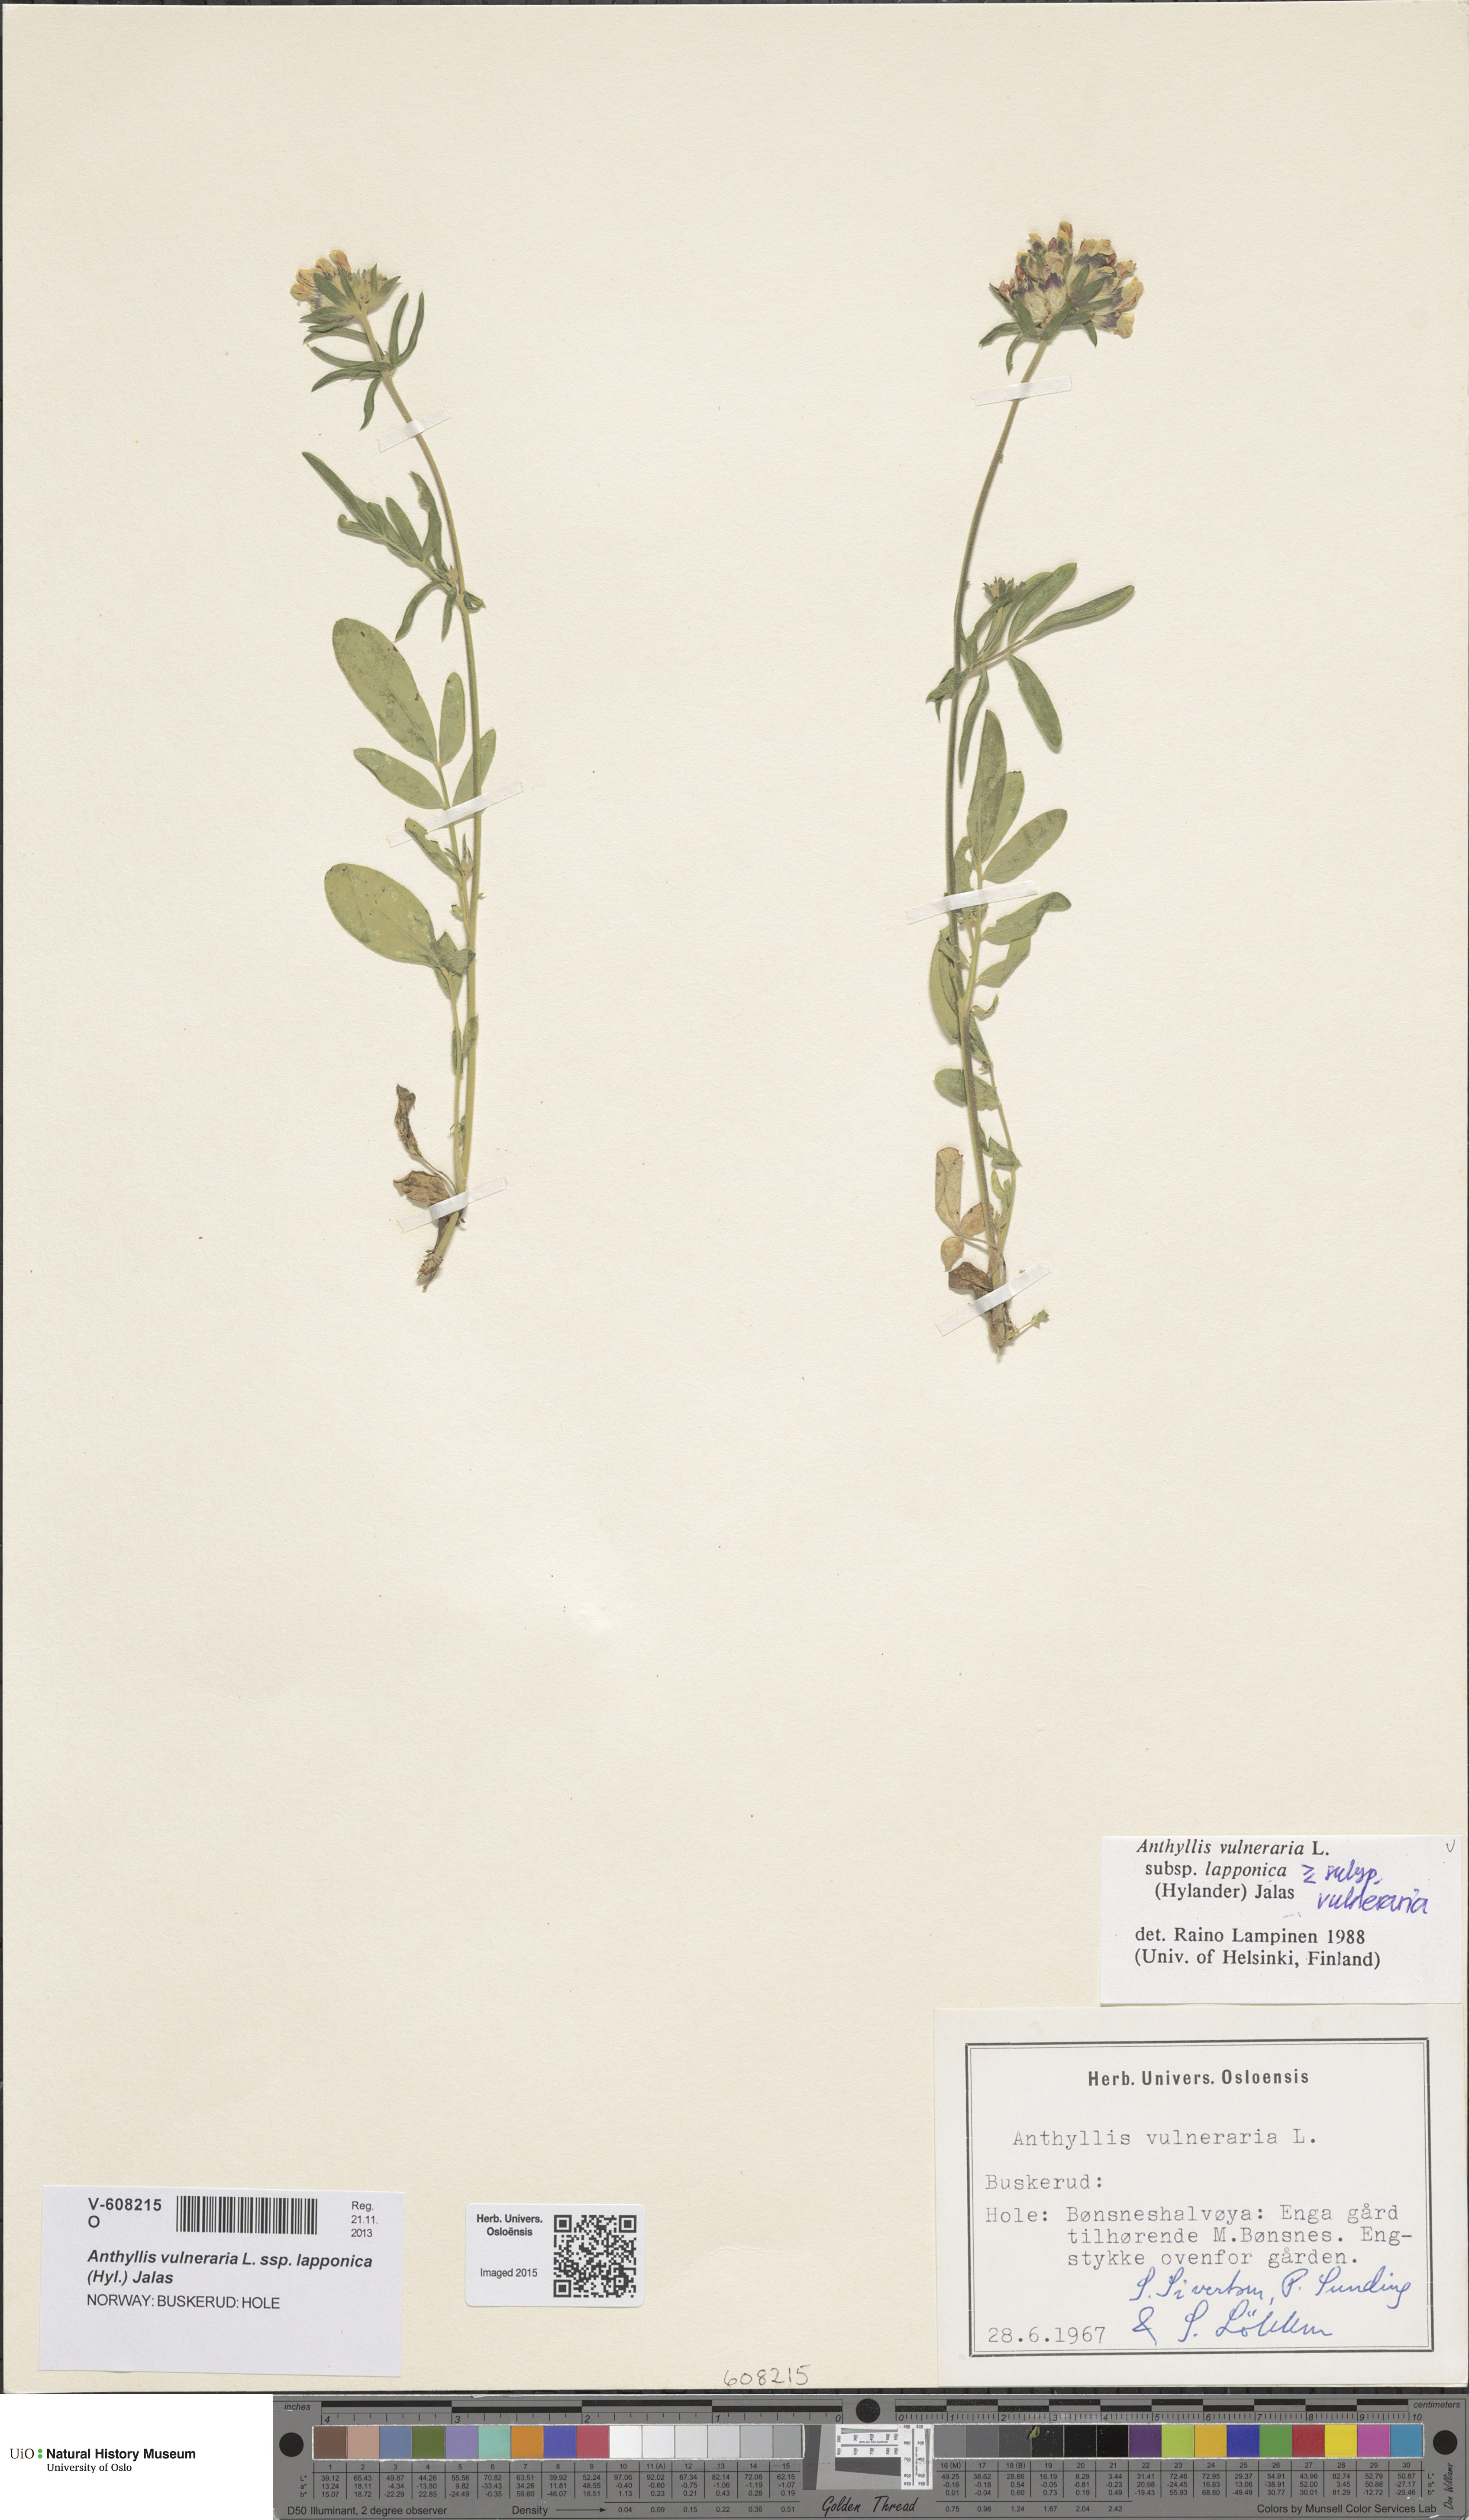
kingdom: Plantae
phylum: Tracheophyta
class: Magnoliopsida
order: Fabales
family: Fabaceae
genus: Anthyllis
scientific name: Anthyllis vulneraria
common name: Kidney vetch
